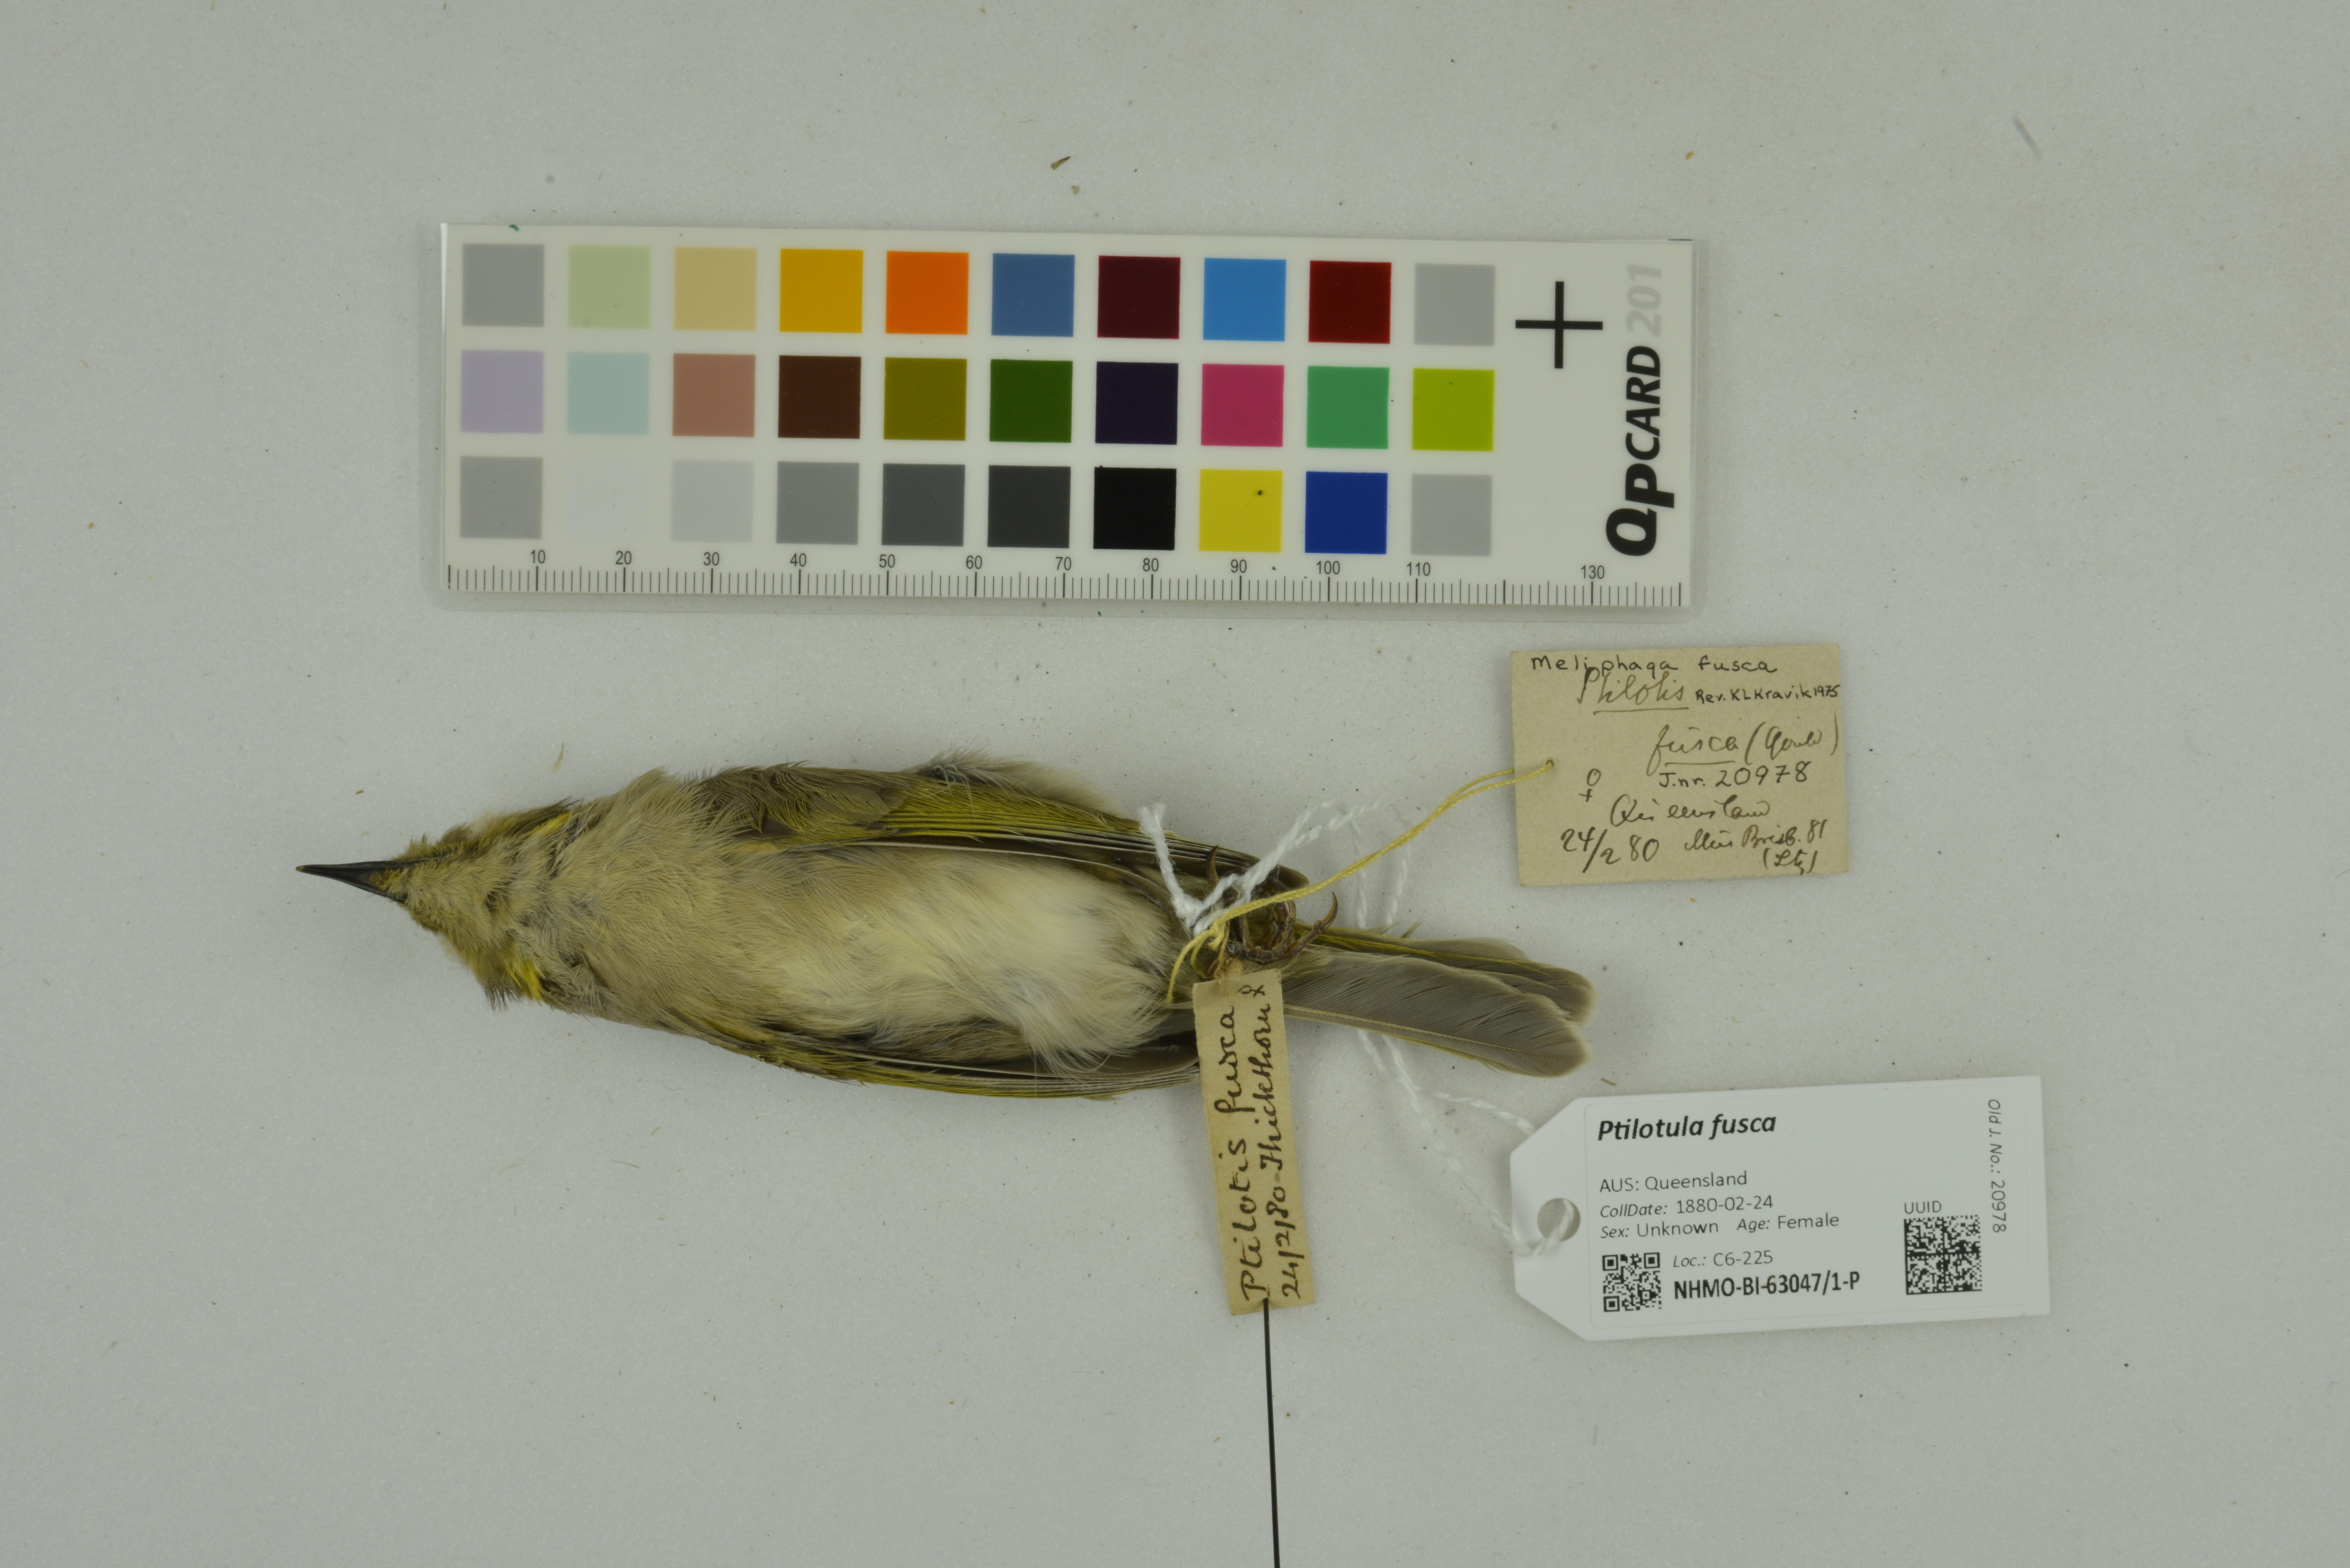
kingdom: Animalia
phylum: Chordata
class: Aves
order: Passeriformes
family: Meliphagidae
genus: Ptilotula
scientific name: Ptilotula fusca
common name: Fuscous honeyeater
